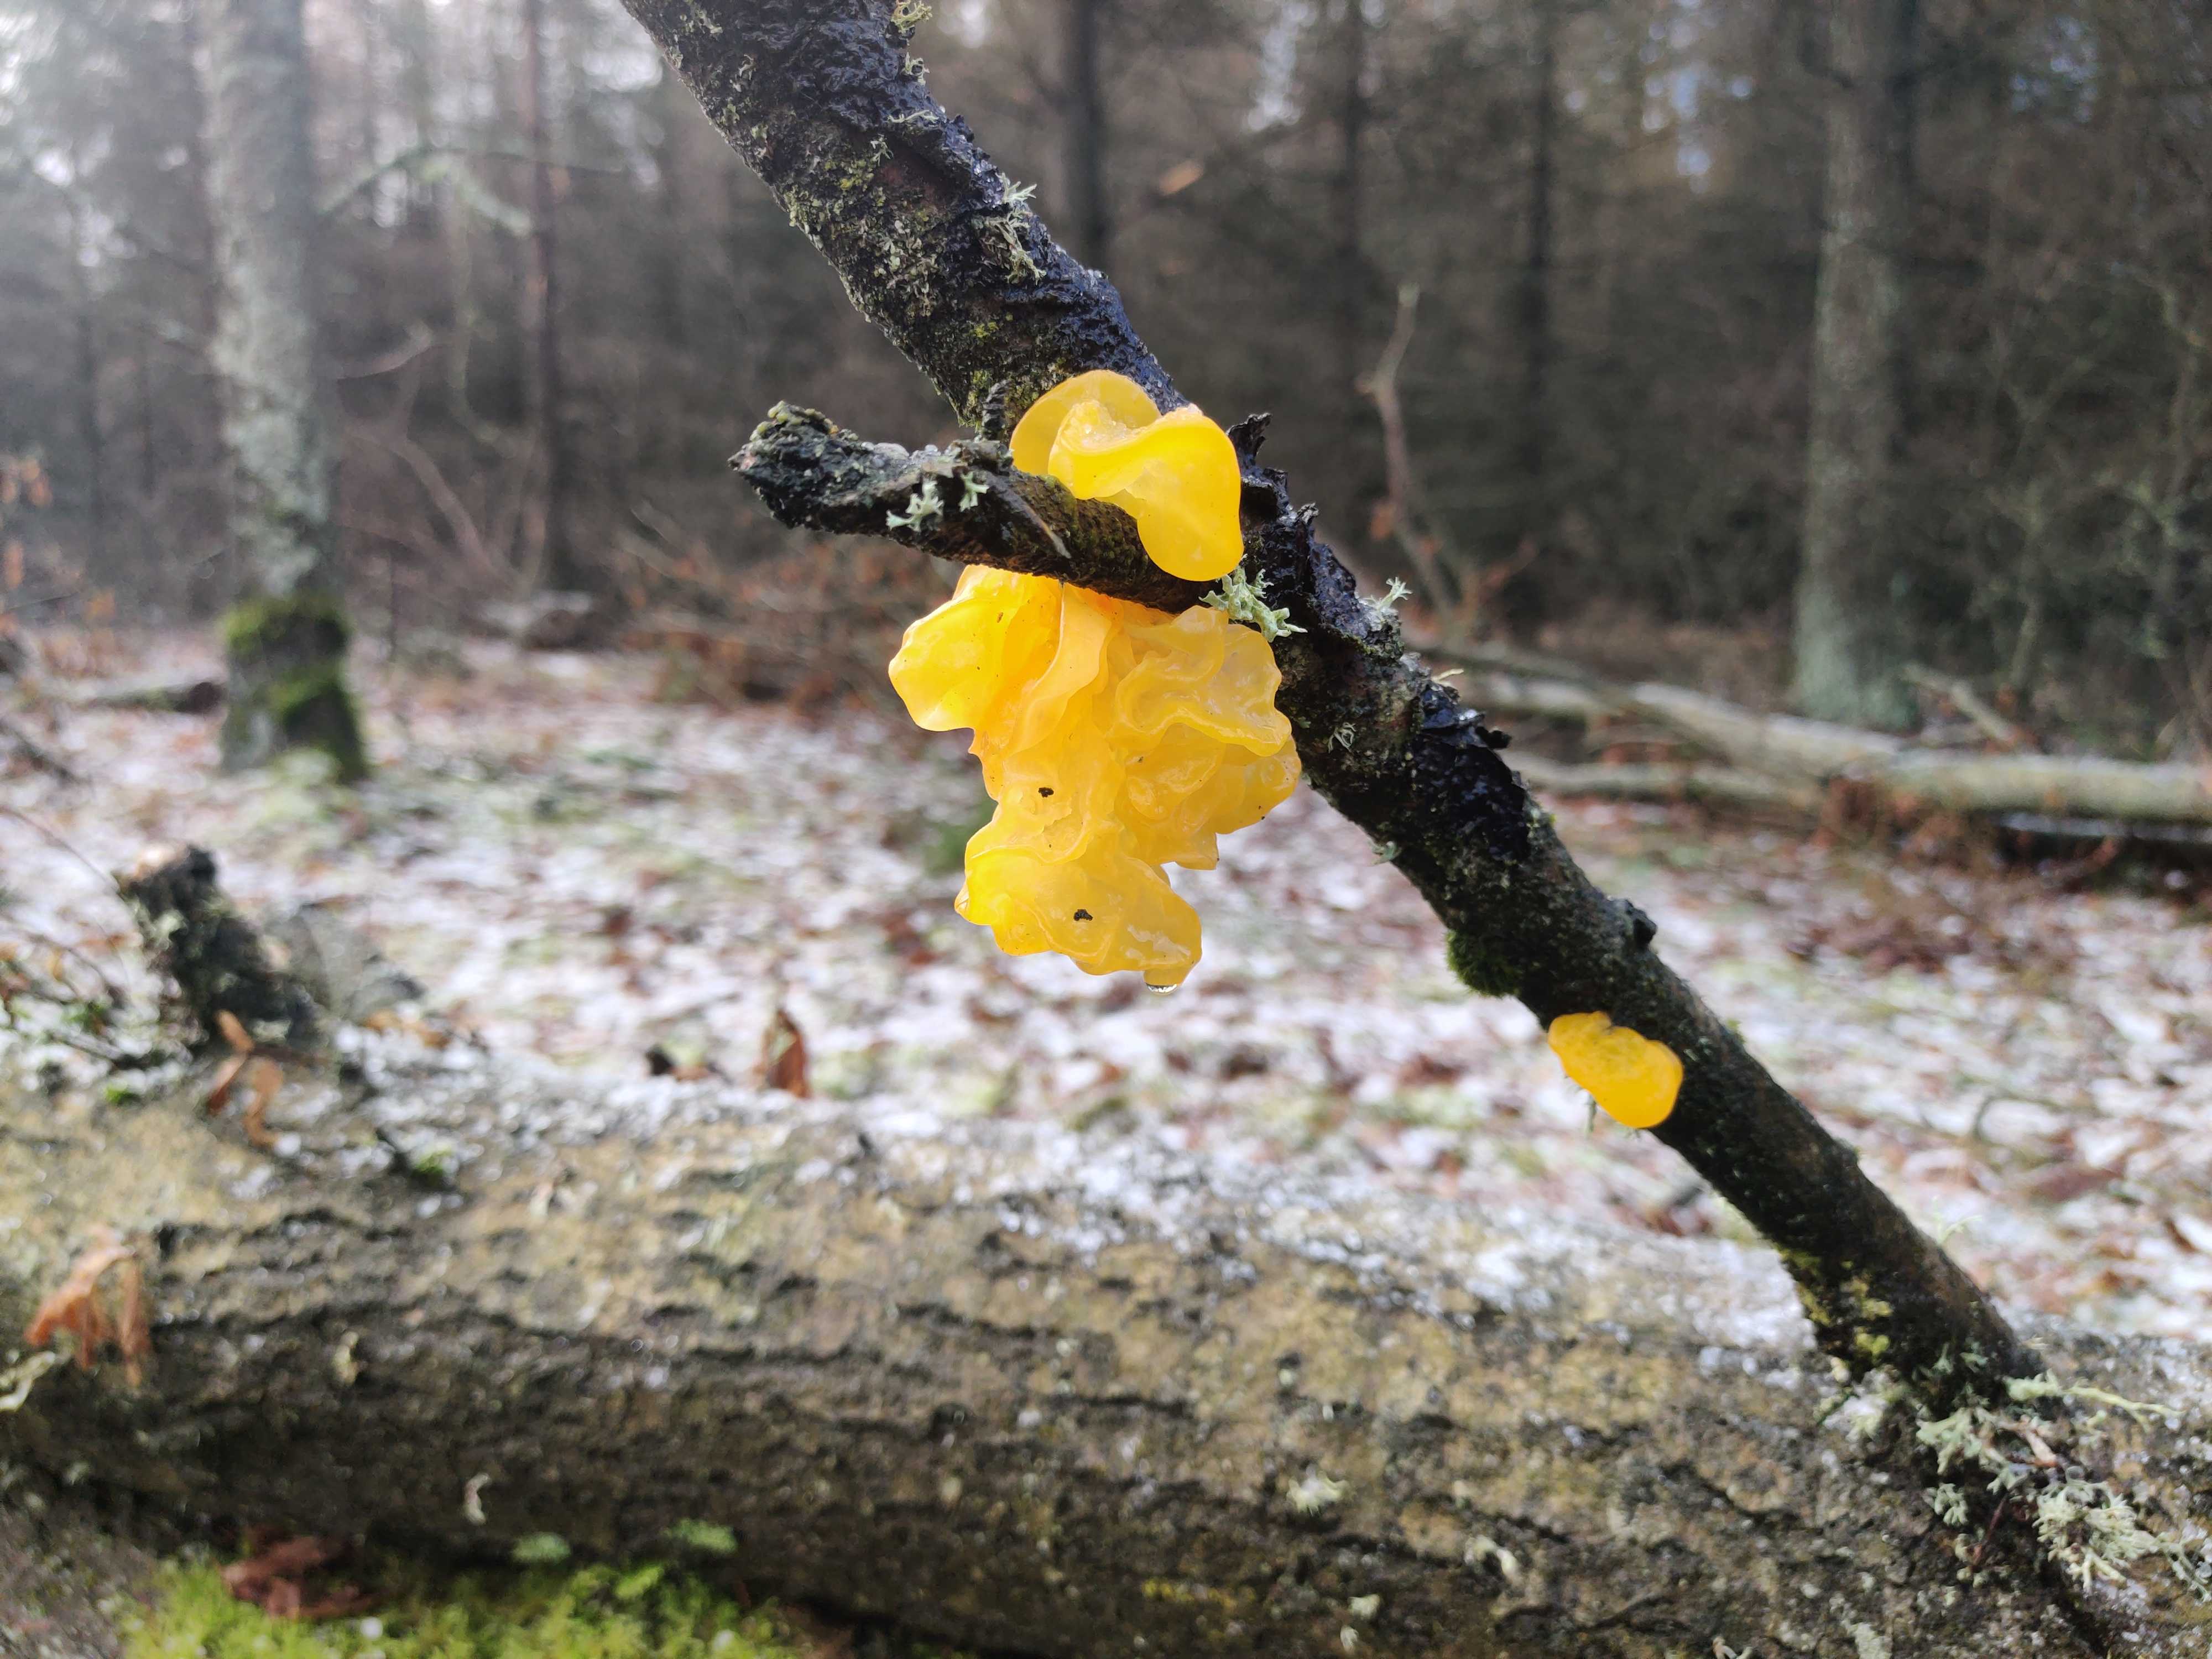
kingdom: Fungi
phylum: Basidiomycota
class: Tremellomycetes
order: Tremellales
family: Tremellaceae
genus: Tremella
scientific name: Tremella mesenterica
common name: gul bævresvamp
